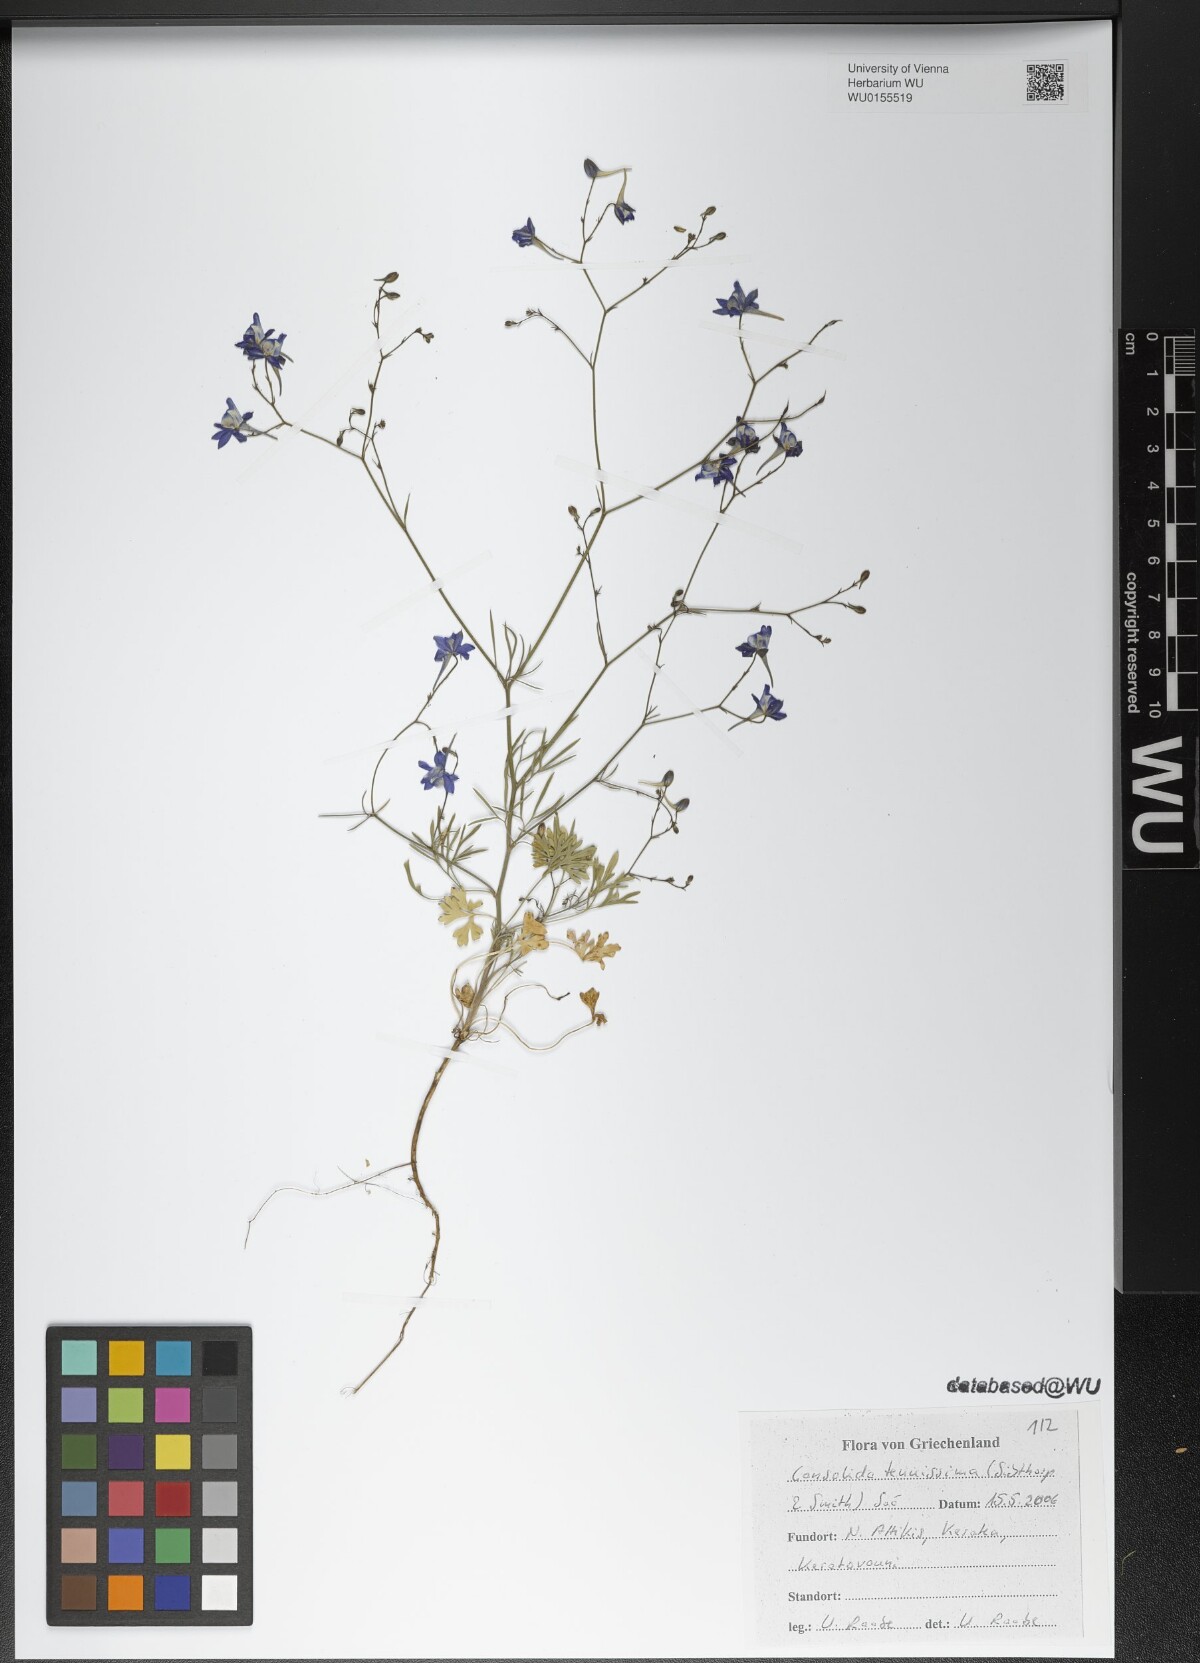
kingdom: Plantae
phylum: Tracheophyta
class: Magnoliopsida
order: Ranunculales
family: Ranunculaceae
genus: Delphinium
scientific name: Delphinium tenuissimum
